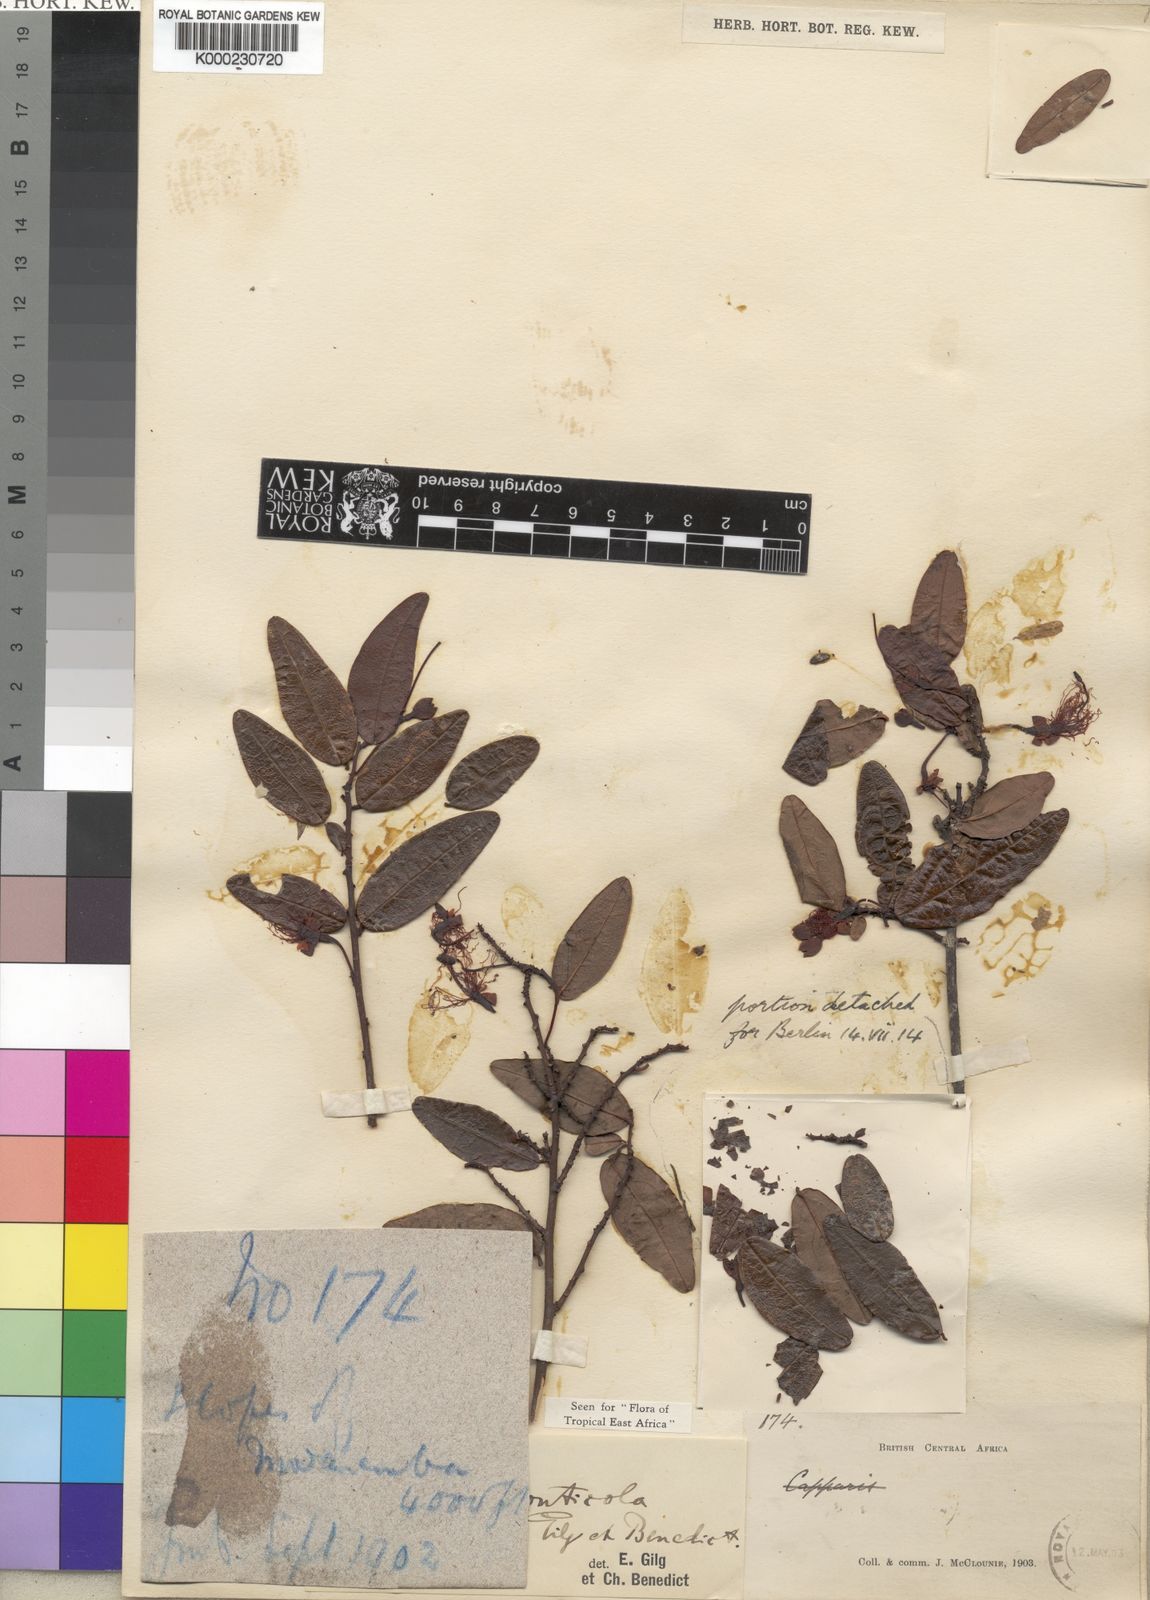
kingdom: Plantae
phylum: Tracheophyta
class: Magnoliopsida
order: Brassicales
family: Capparaceae
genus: Capparis
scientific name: Capparis
